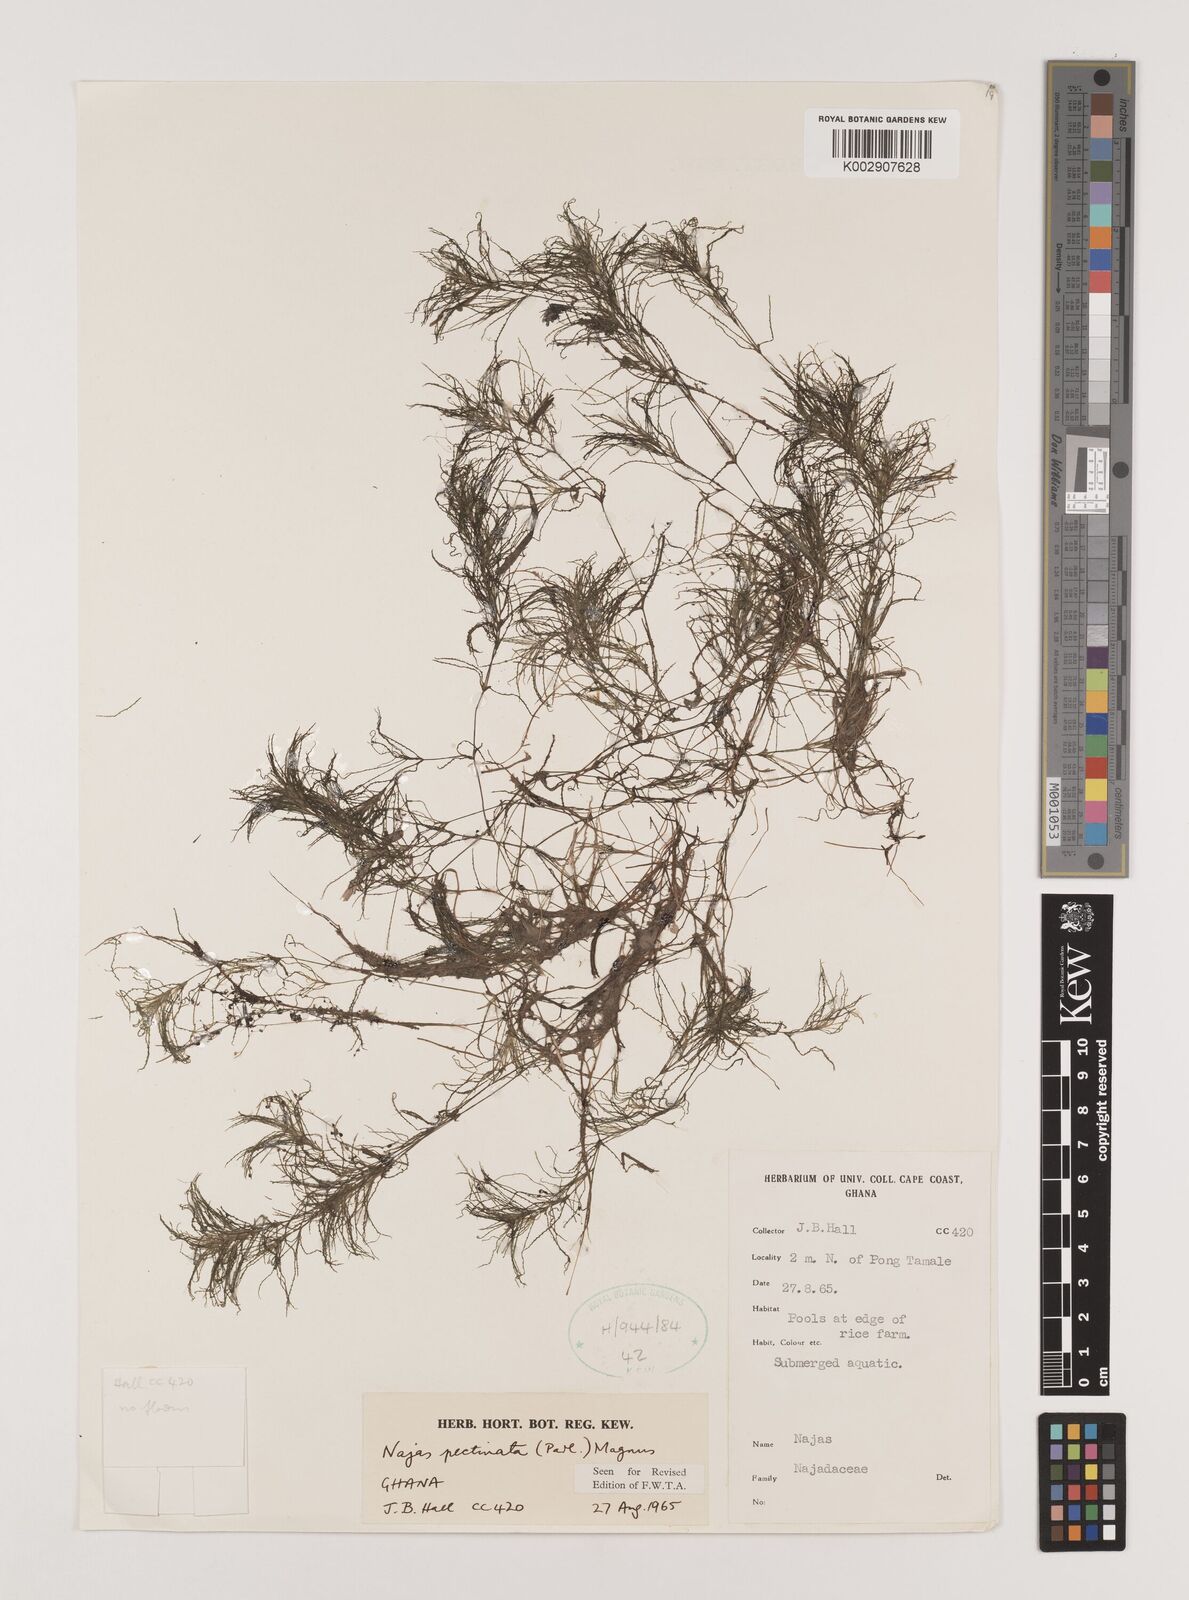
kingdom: Plantae
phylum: Tracheophyta
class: Liliopsida
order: Alismatales
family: Hydrocharitaceae
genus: Najas
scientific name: Najas pectinata
